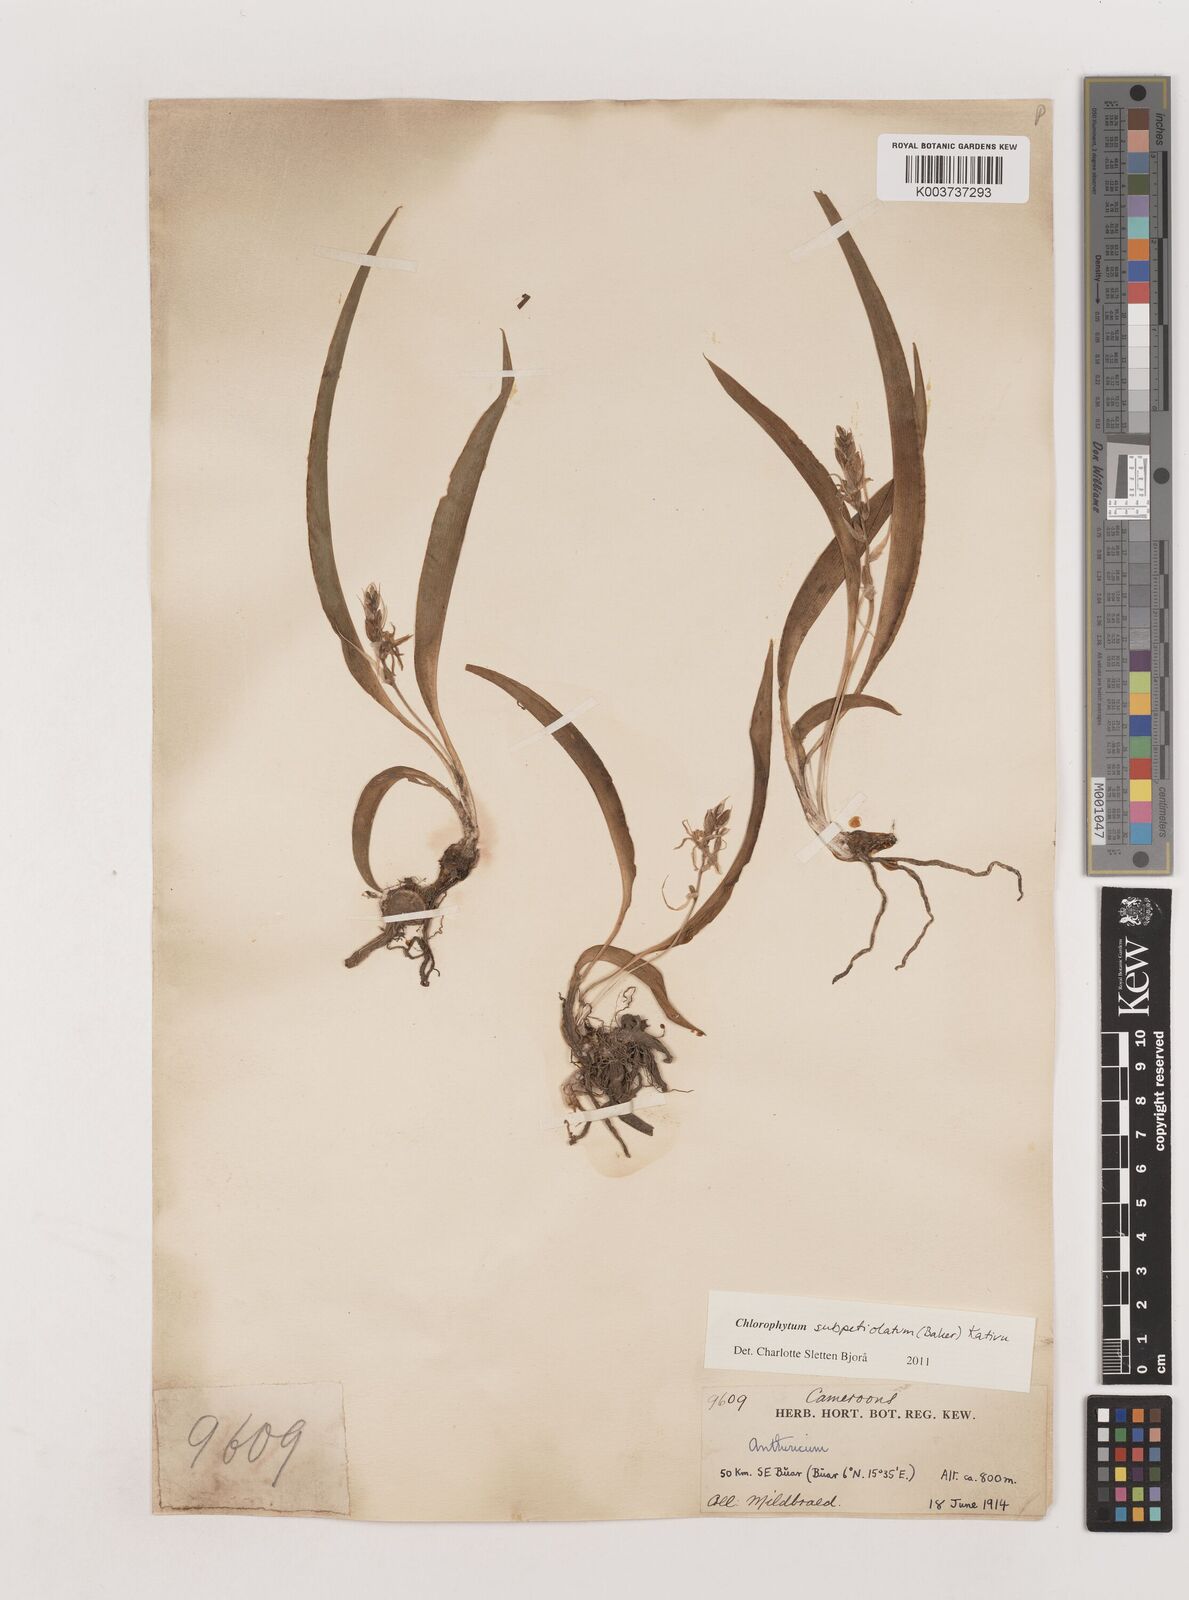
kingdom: Plantae
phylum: Tracheophyta
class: Liliopsida
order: Asparagales
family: Asparagaceae
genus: Chlorophytum
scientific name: Chlorophytum subpetiolatum
